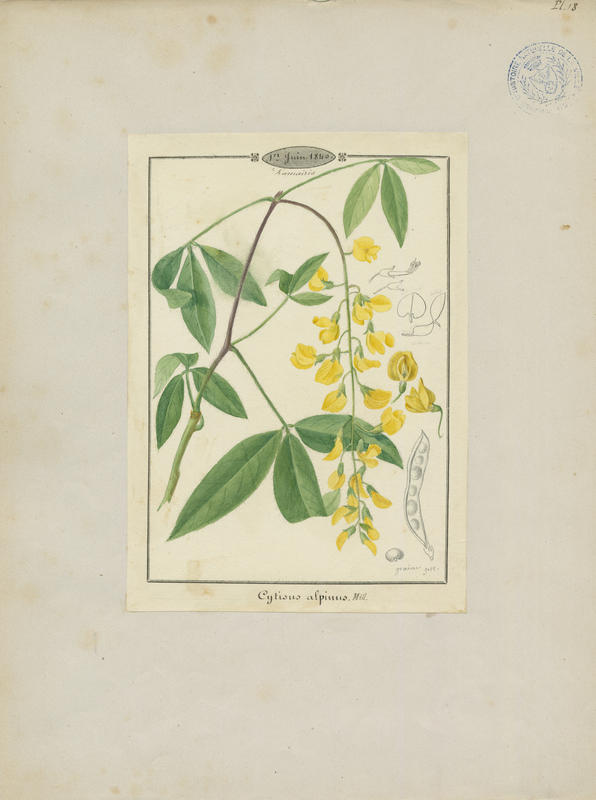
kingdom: Plantae
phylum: Tracheophyta
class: Magnoliopsida
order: Fabales
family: Fabaceae
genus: Laburnum
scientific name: Laburnum alpinum
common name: Scottish laburnum
